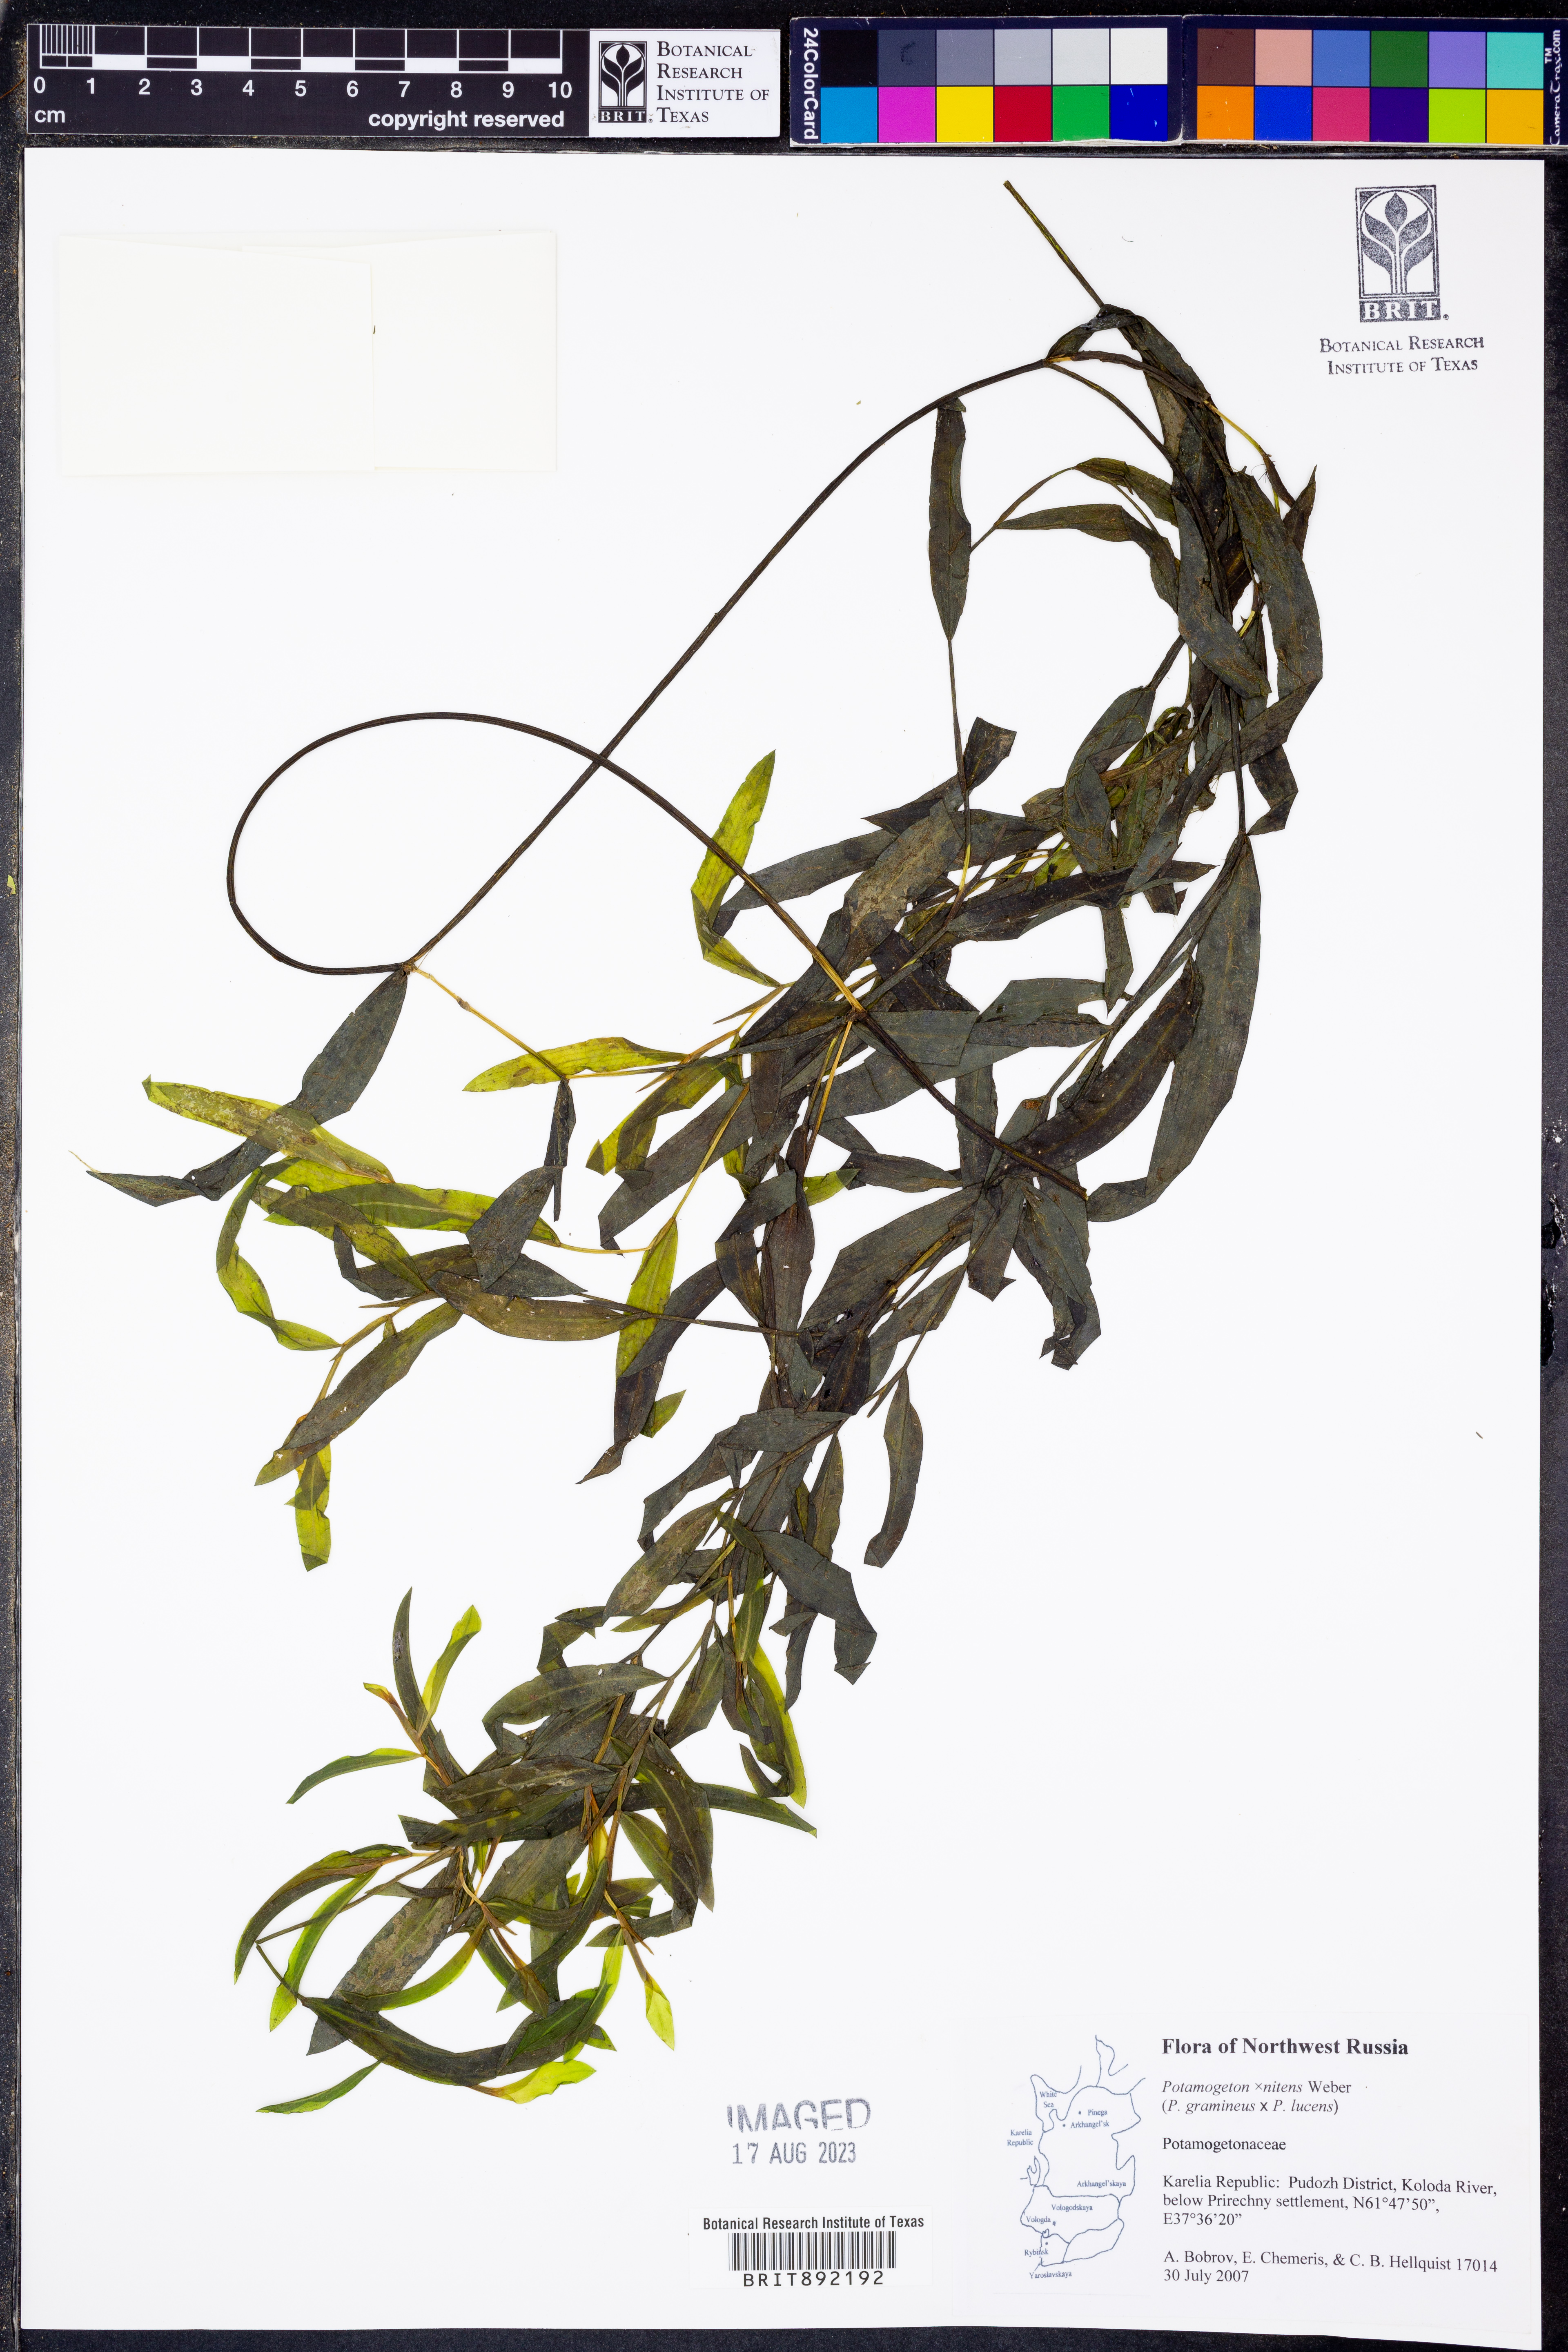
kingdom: Plantae
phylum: Tracheophyta
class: Liliopsida
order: Alismatales
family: Potamogetonaceae
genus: Potamogeton
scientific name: Potamogeton
